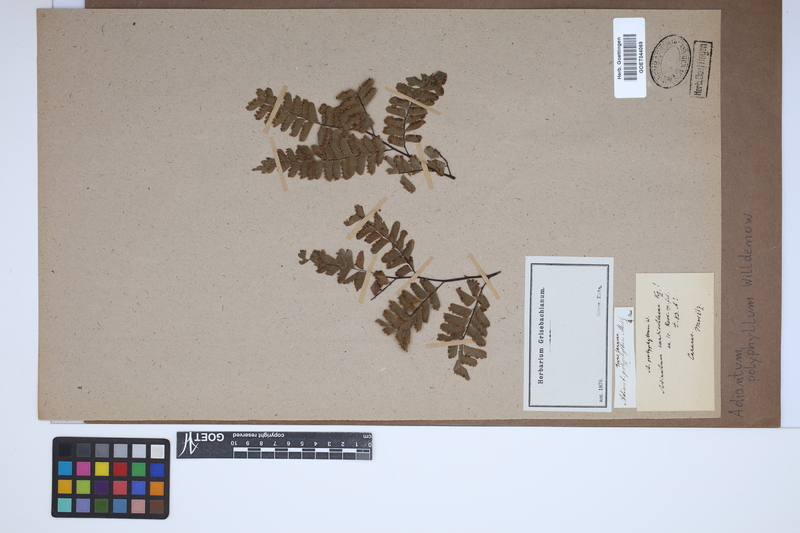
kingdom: Plantae
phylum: Tracheophyta
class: Polypodiopsida
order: Polypodiales
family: Pteridaceae
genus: Adiantum
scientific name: Adiantum polyphyllum
